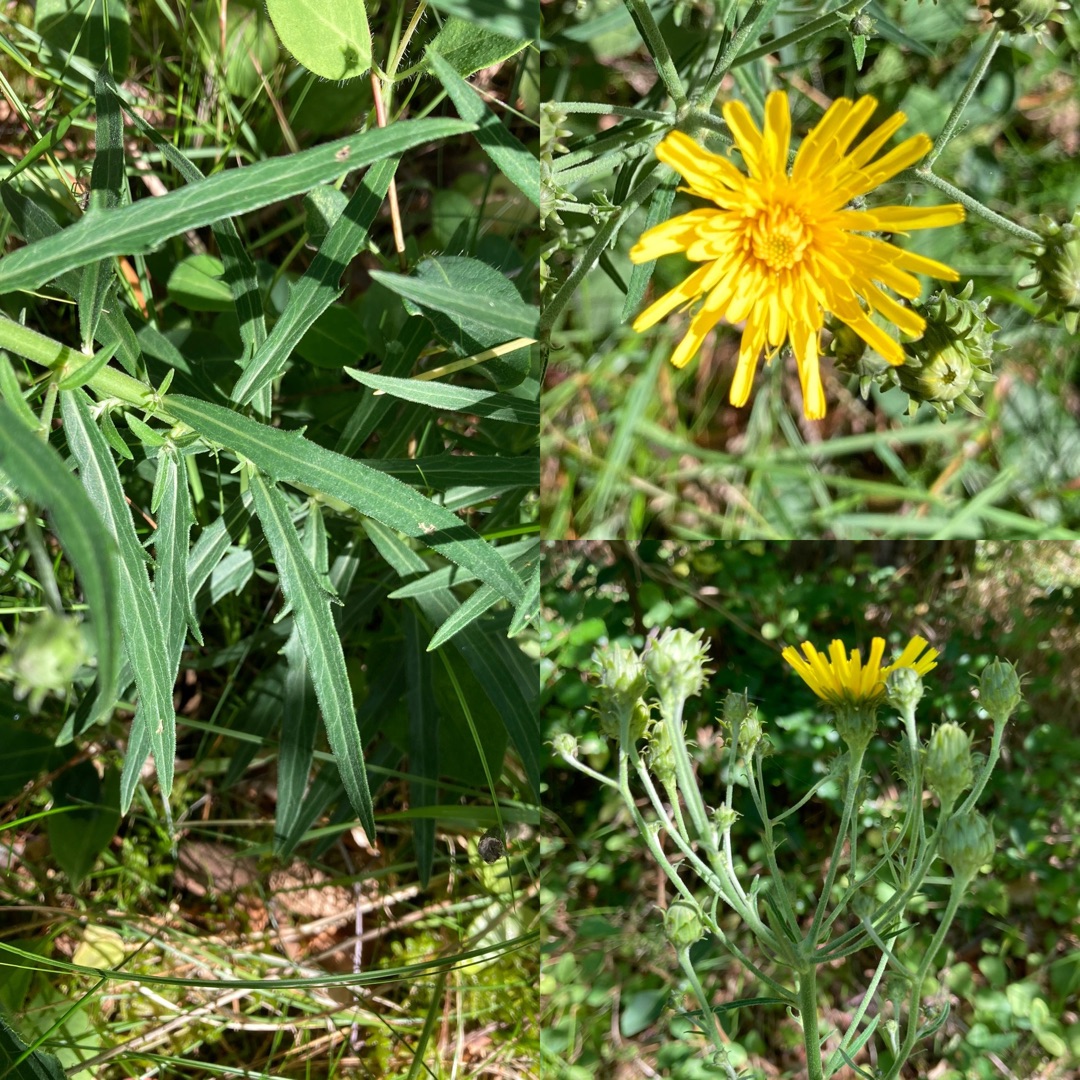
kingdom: Plantae
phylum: Tracheophyta
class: Magnoliopsida
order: Asterales
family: Asteraceae
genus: Hieracium
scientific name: Hieracium umbellatum
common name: Smalbladet høgeurt
